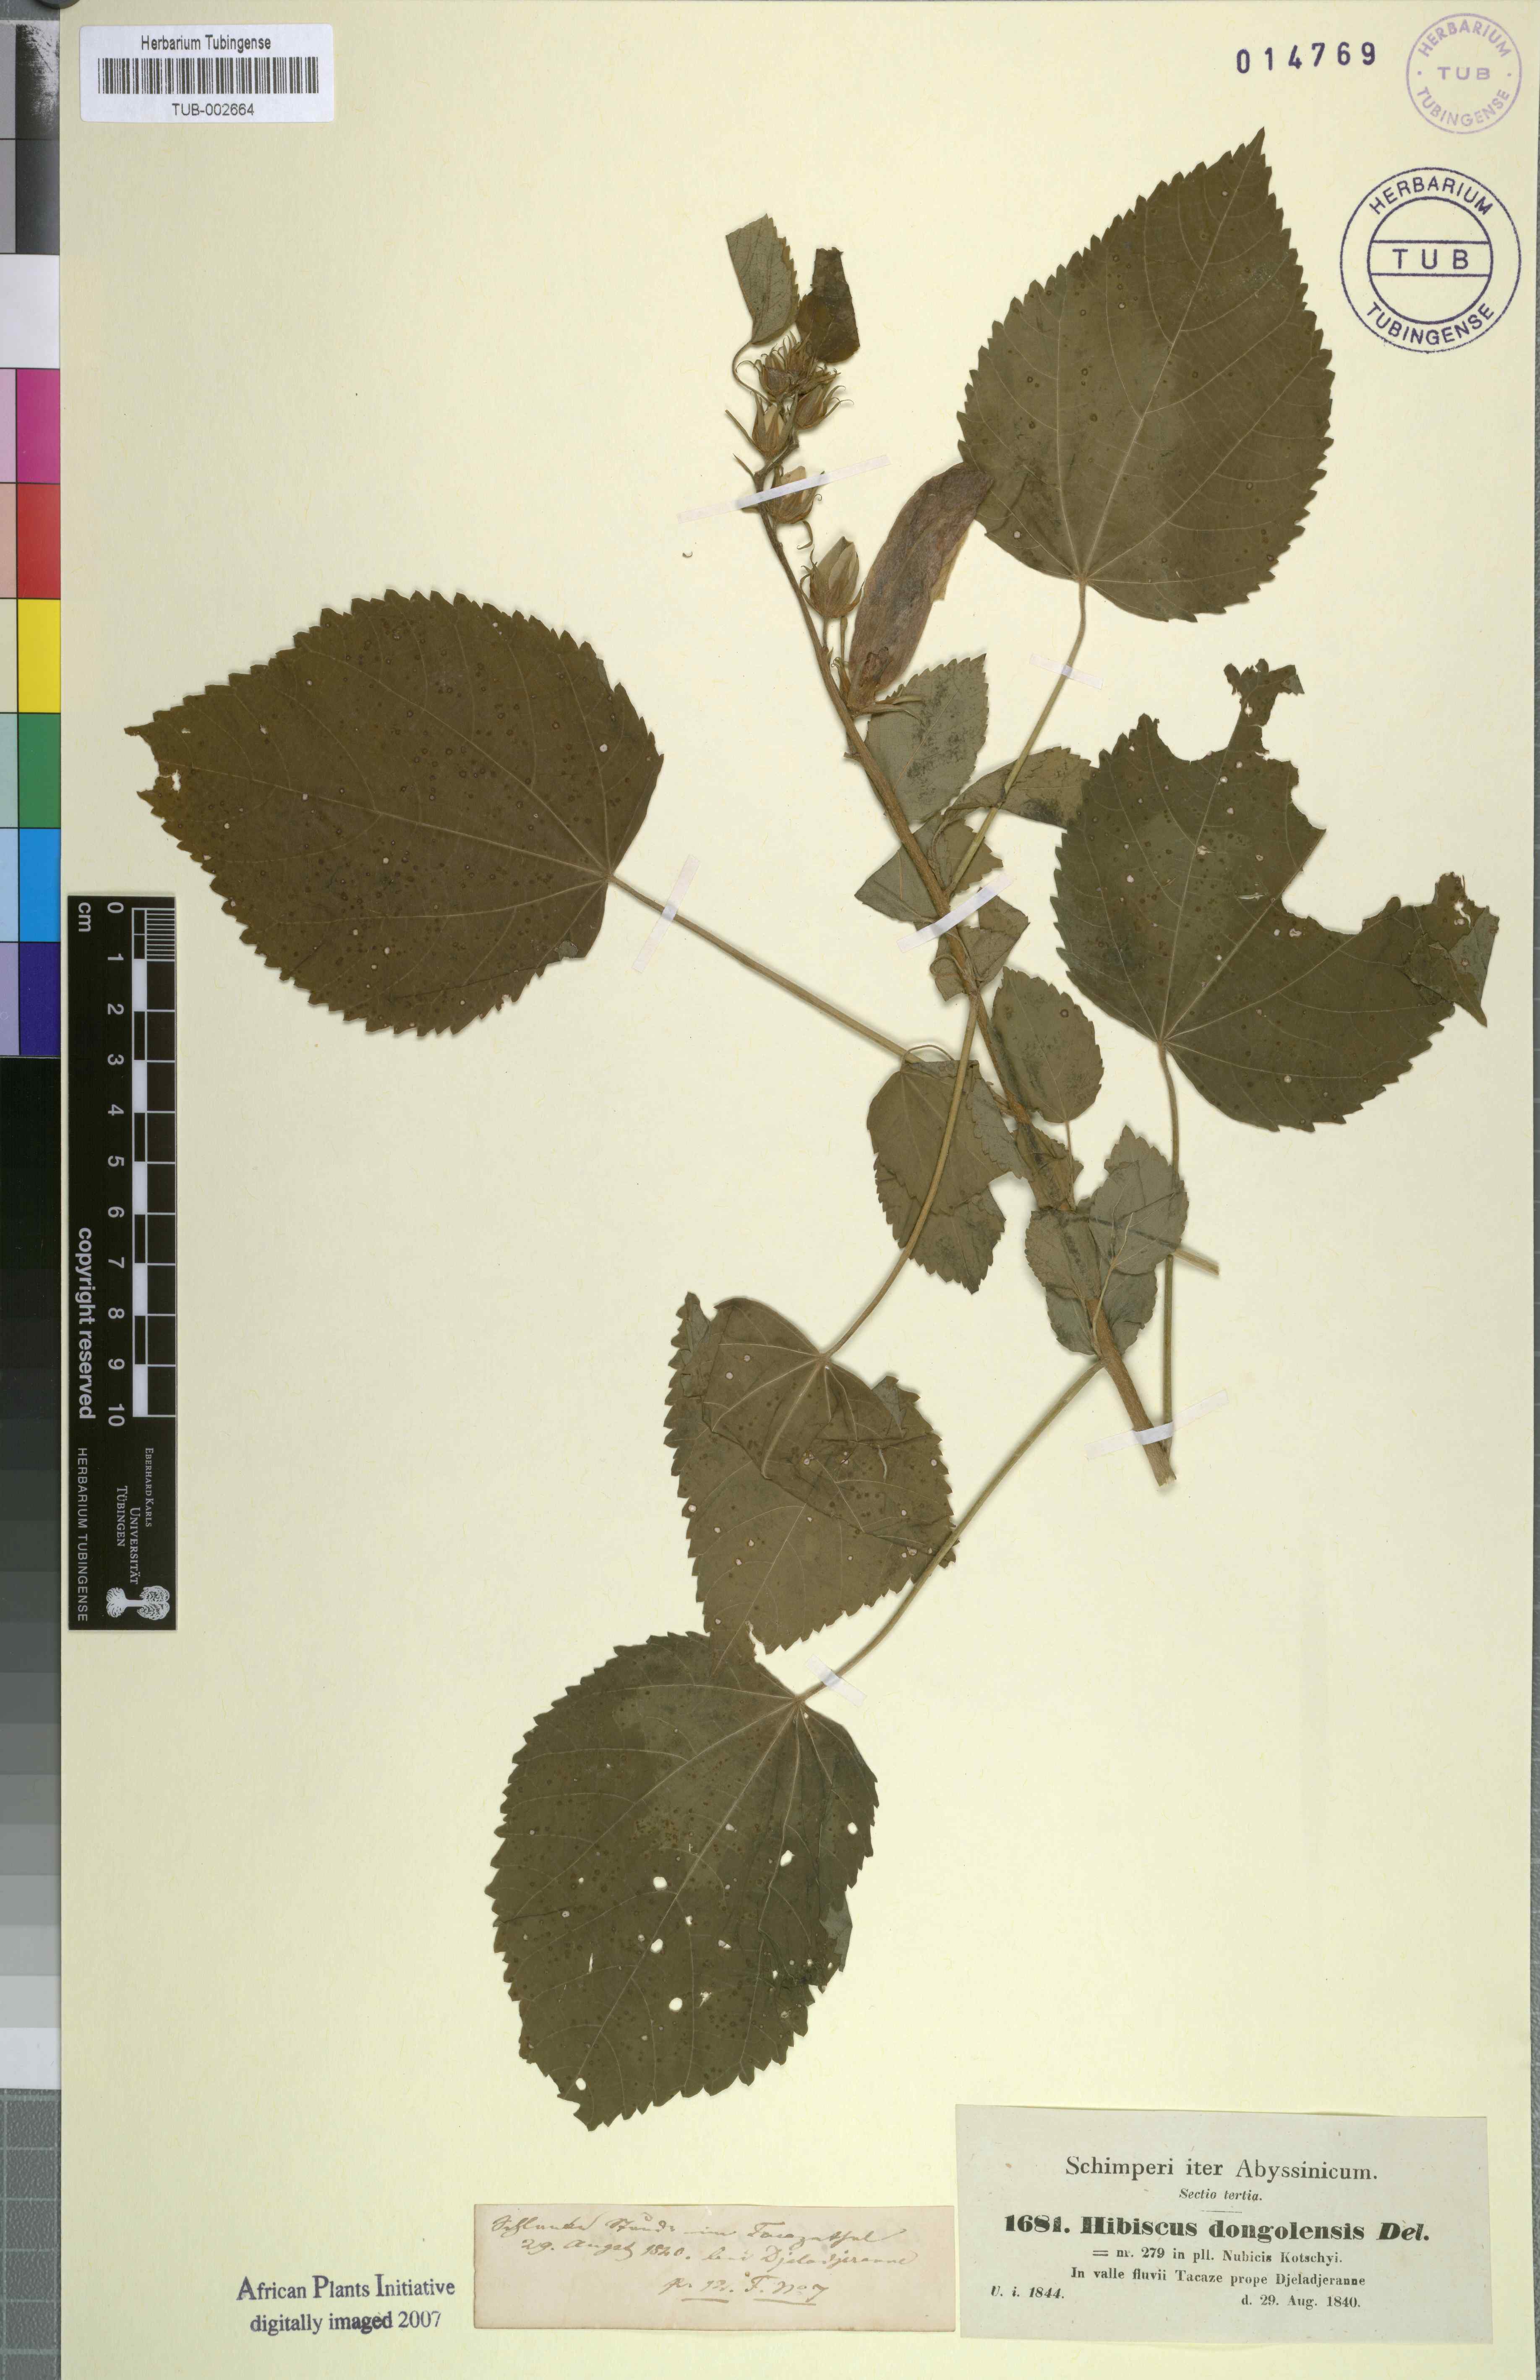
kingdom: Plantae
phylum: Tracheophyta
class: Magnoliopsida
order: Malvales
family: Malvaceae
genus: Hibiscus
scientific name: Hibiscus lunariifolius
